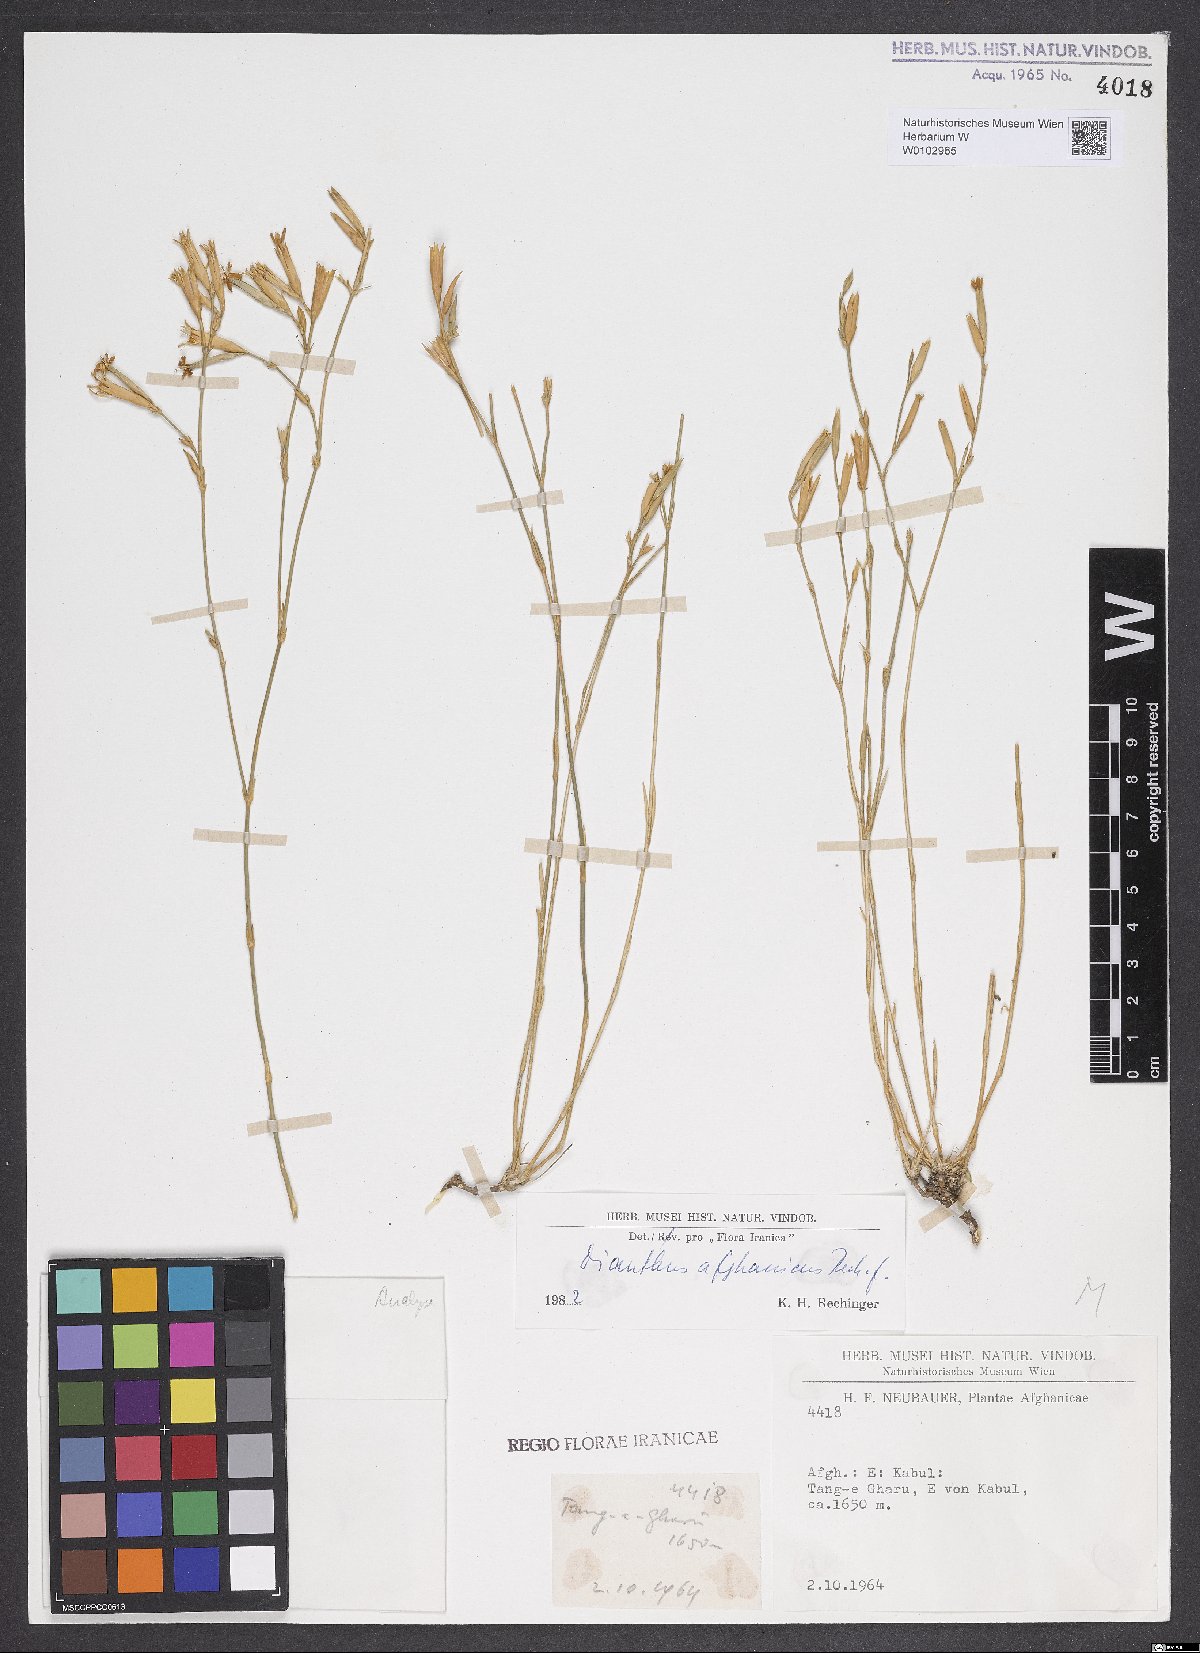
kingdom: Plantae
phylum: Tracheophyta
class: Magnoliopsida
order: Caryophyllales
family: Caryophyllaceae
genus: Dianthus
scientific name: Dianthus afghanicus
